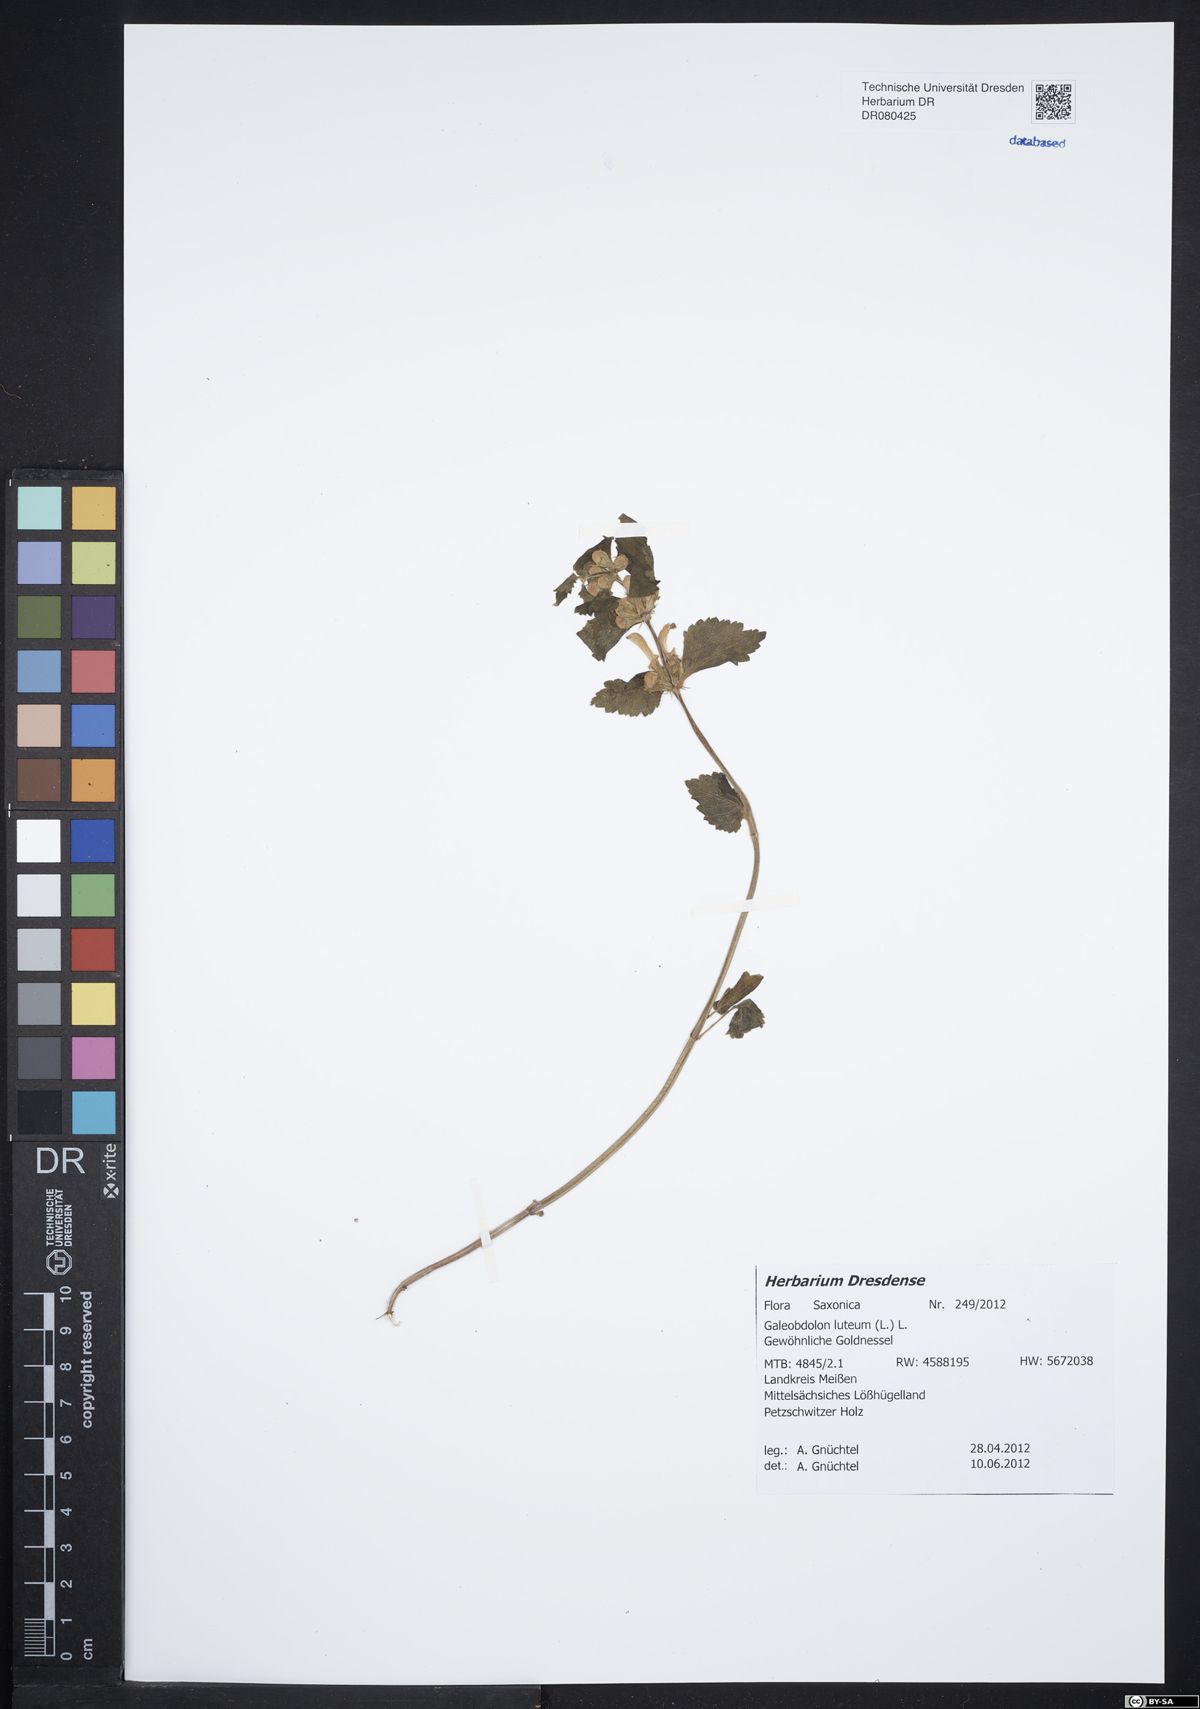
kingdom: Plantae
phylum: Tracheophyta
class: Magnoliopsida
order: Lamiales
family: Lamiaceae
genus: Lamium
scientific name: Lamium galeobdolon
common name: Yellow archangel
